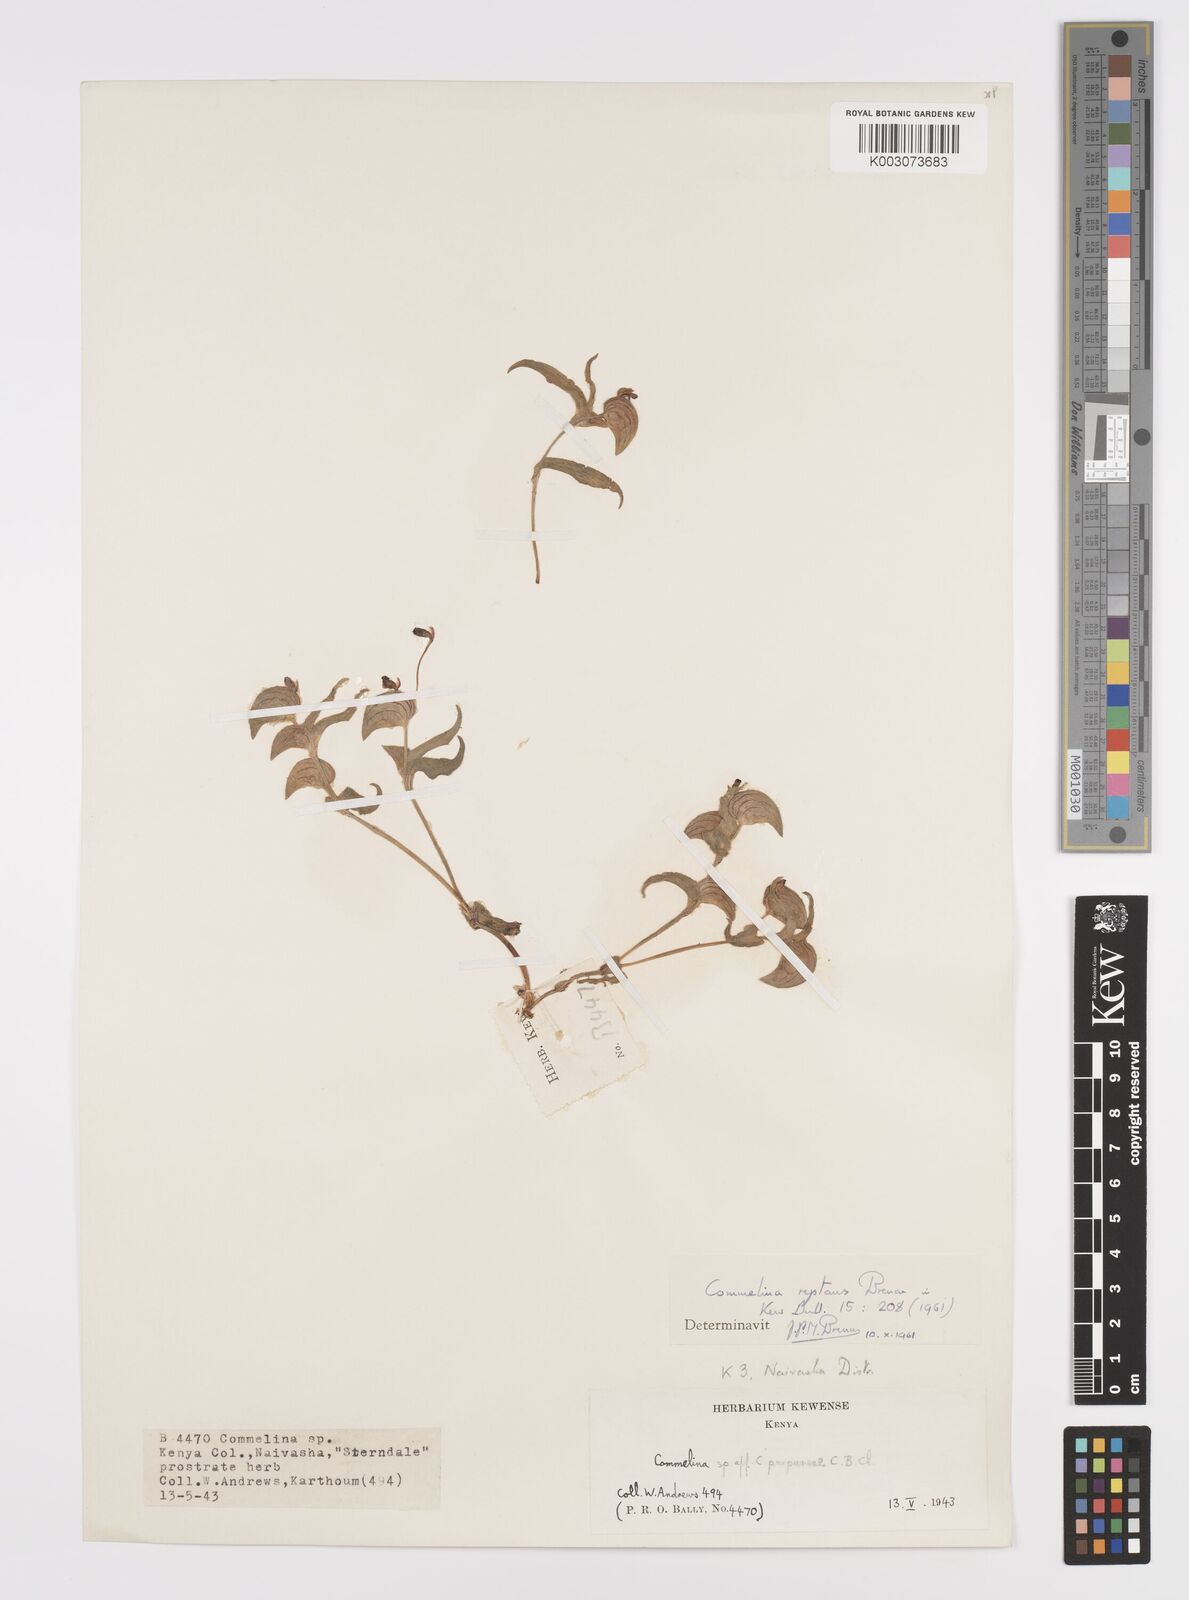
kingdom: Plantae
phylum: Tracheophyta
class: Liliopsida
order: Commelinales
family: Commelinaceae
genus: Commelina
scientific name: Commelina reptans
